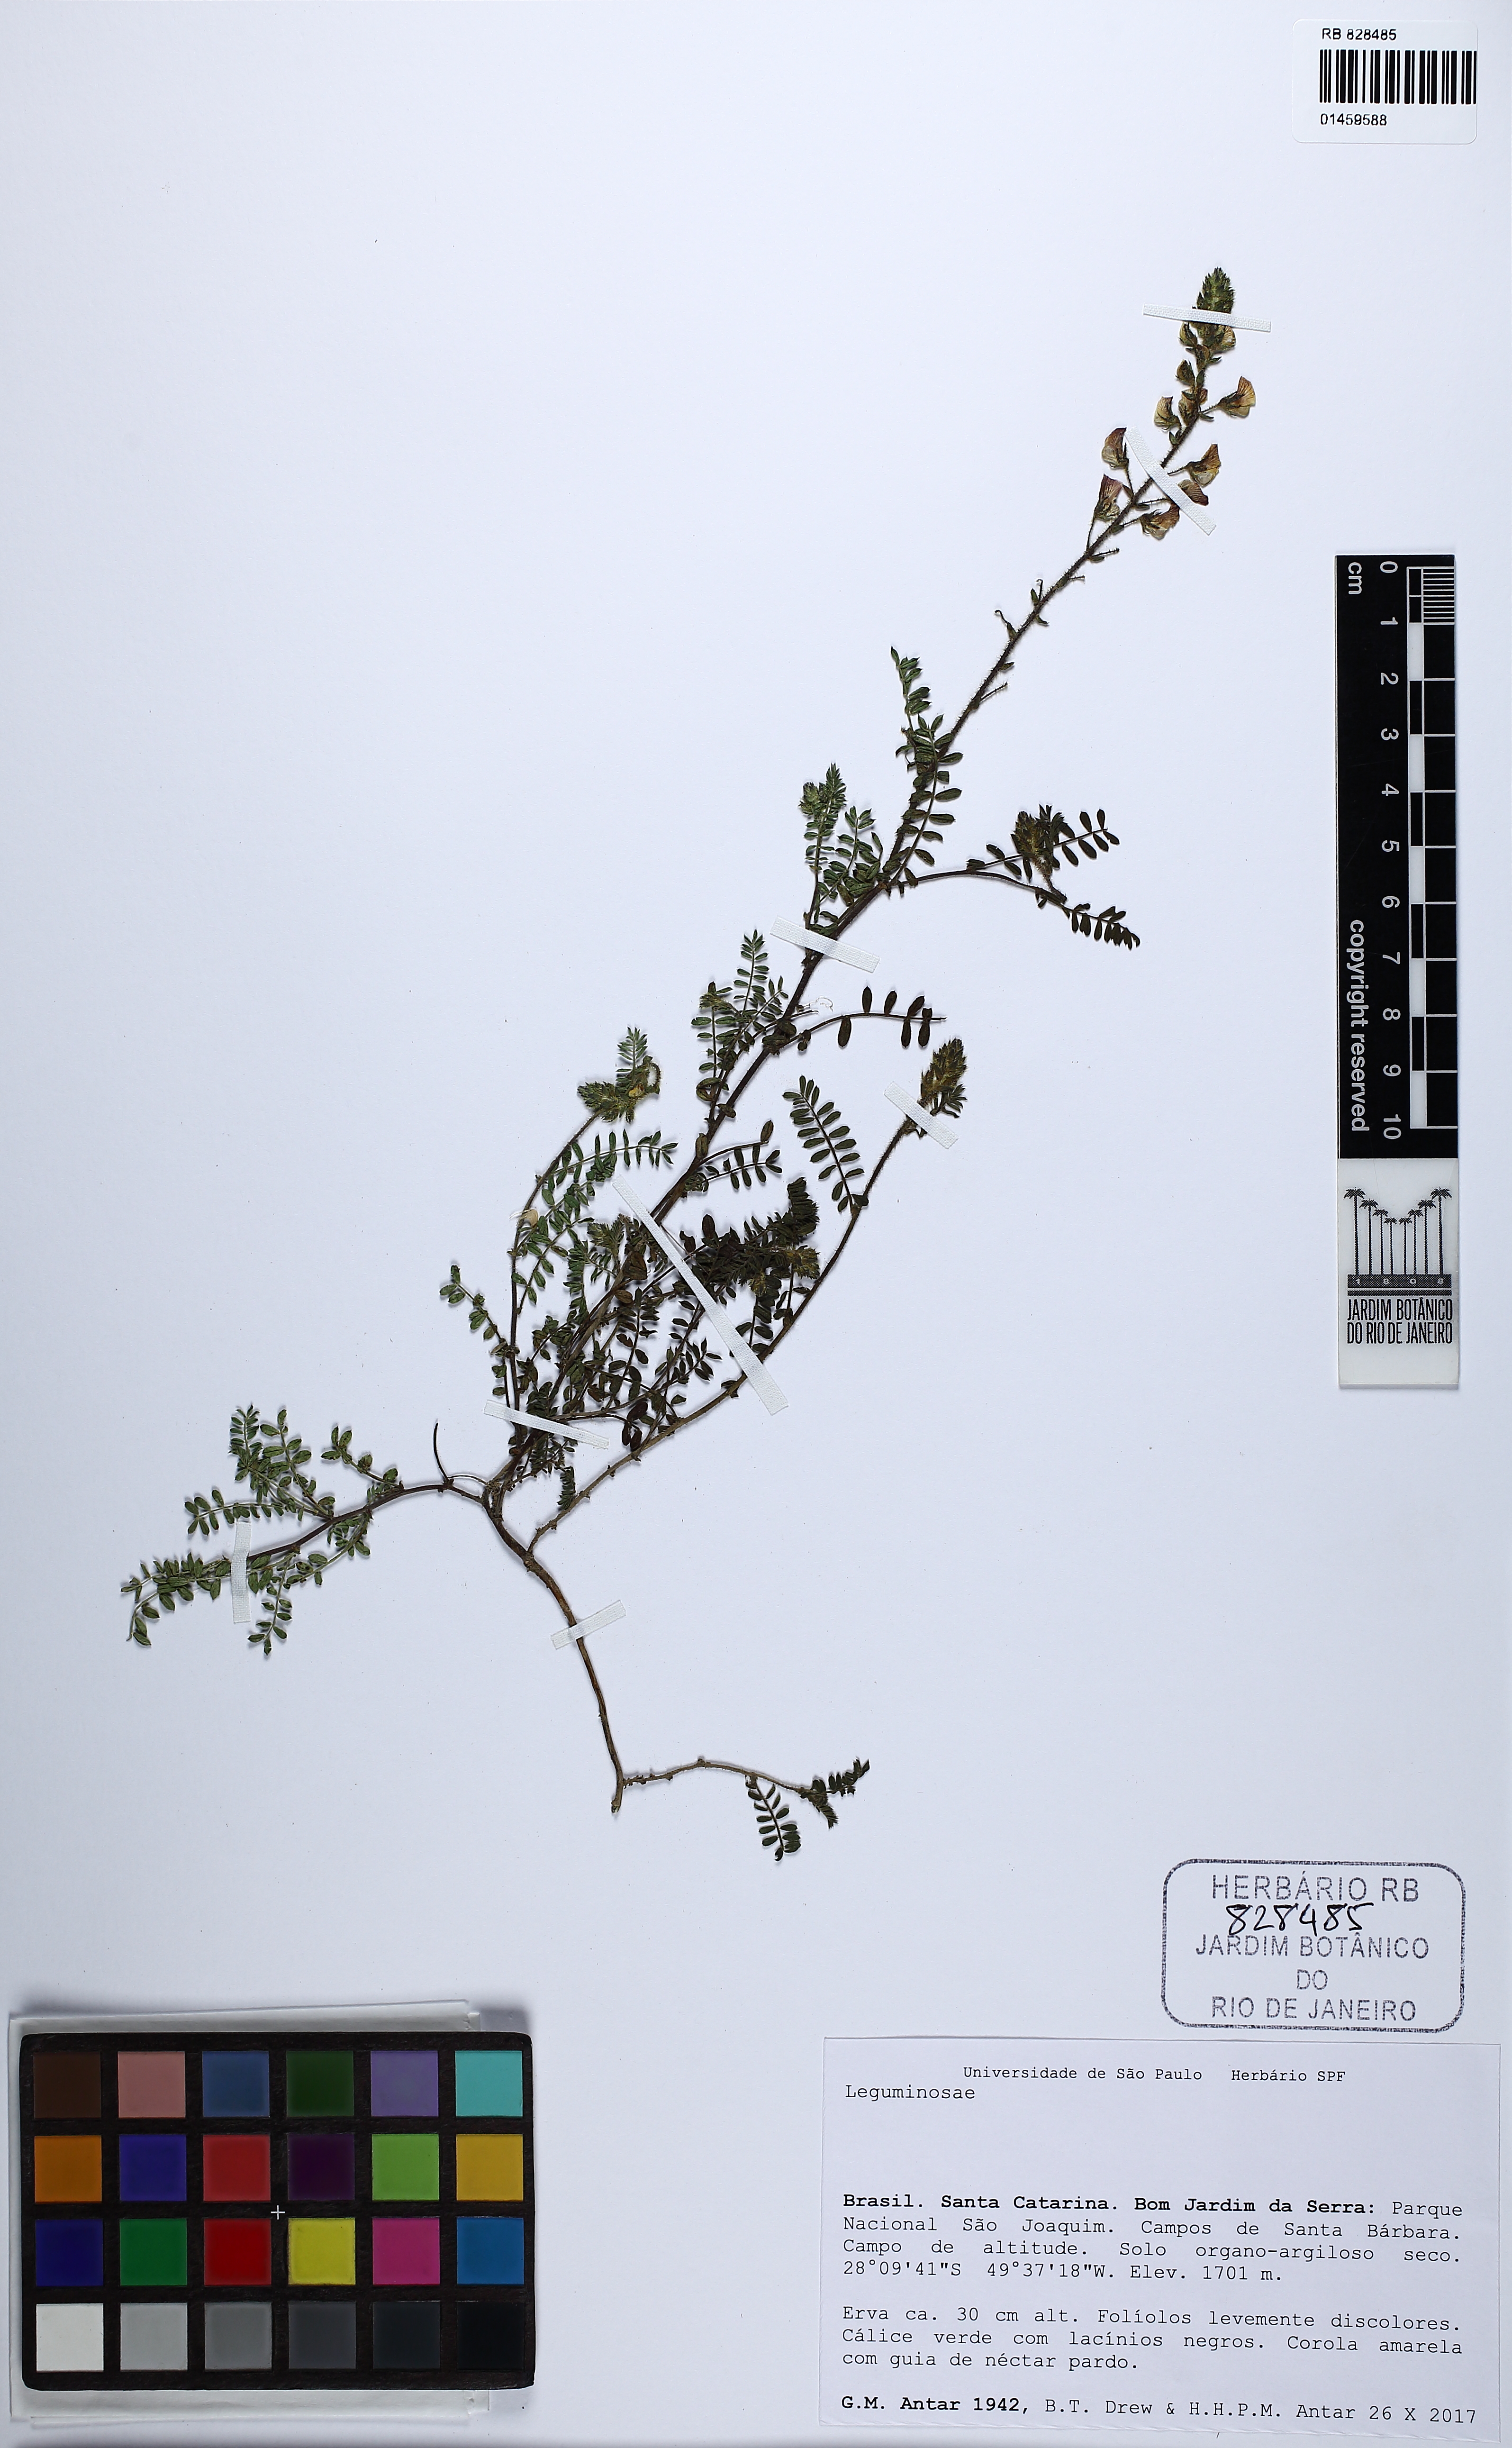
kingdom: Plantae
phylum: Tracheophyta
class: Magnoliopsida
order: Fabales
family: Fabaceae
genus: Aeschynomene
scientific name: Aeschynomene
